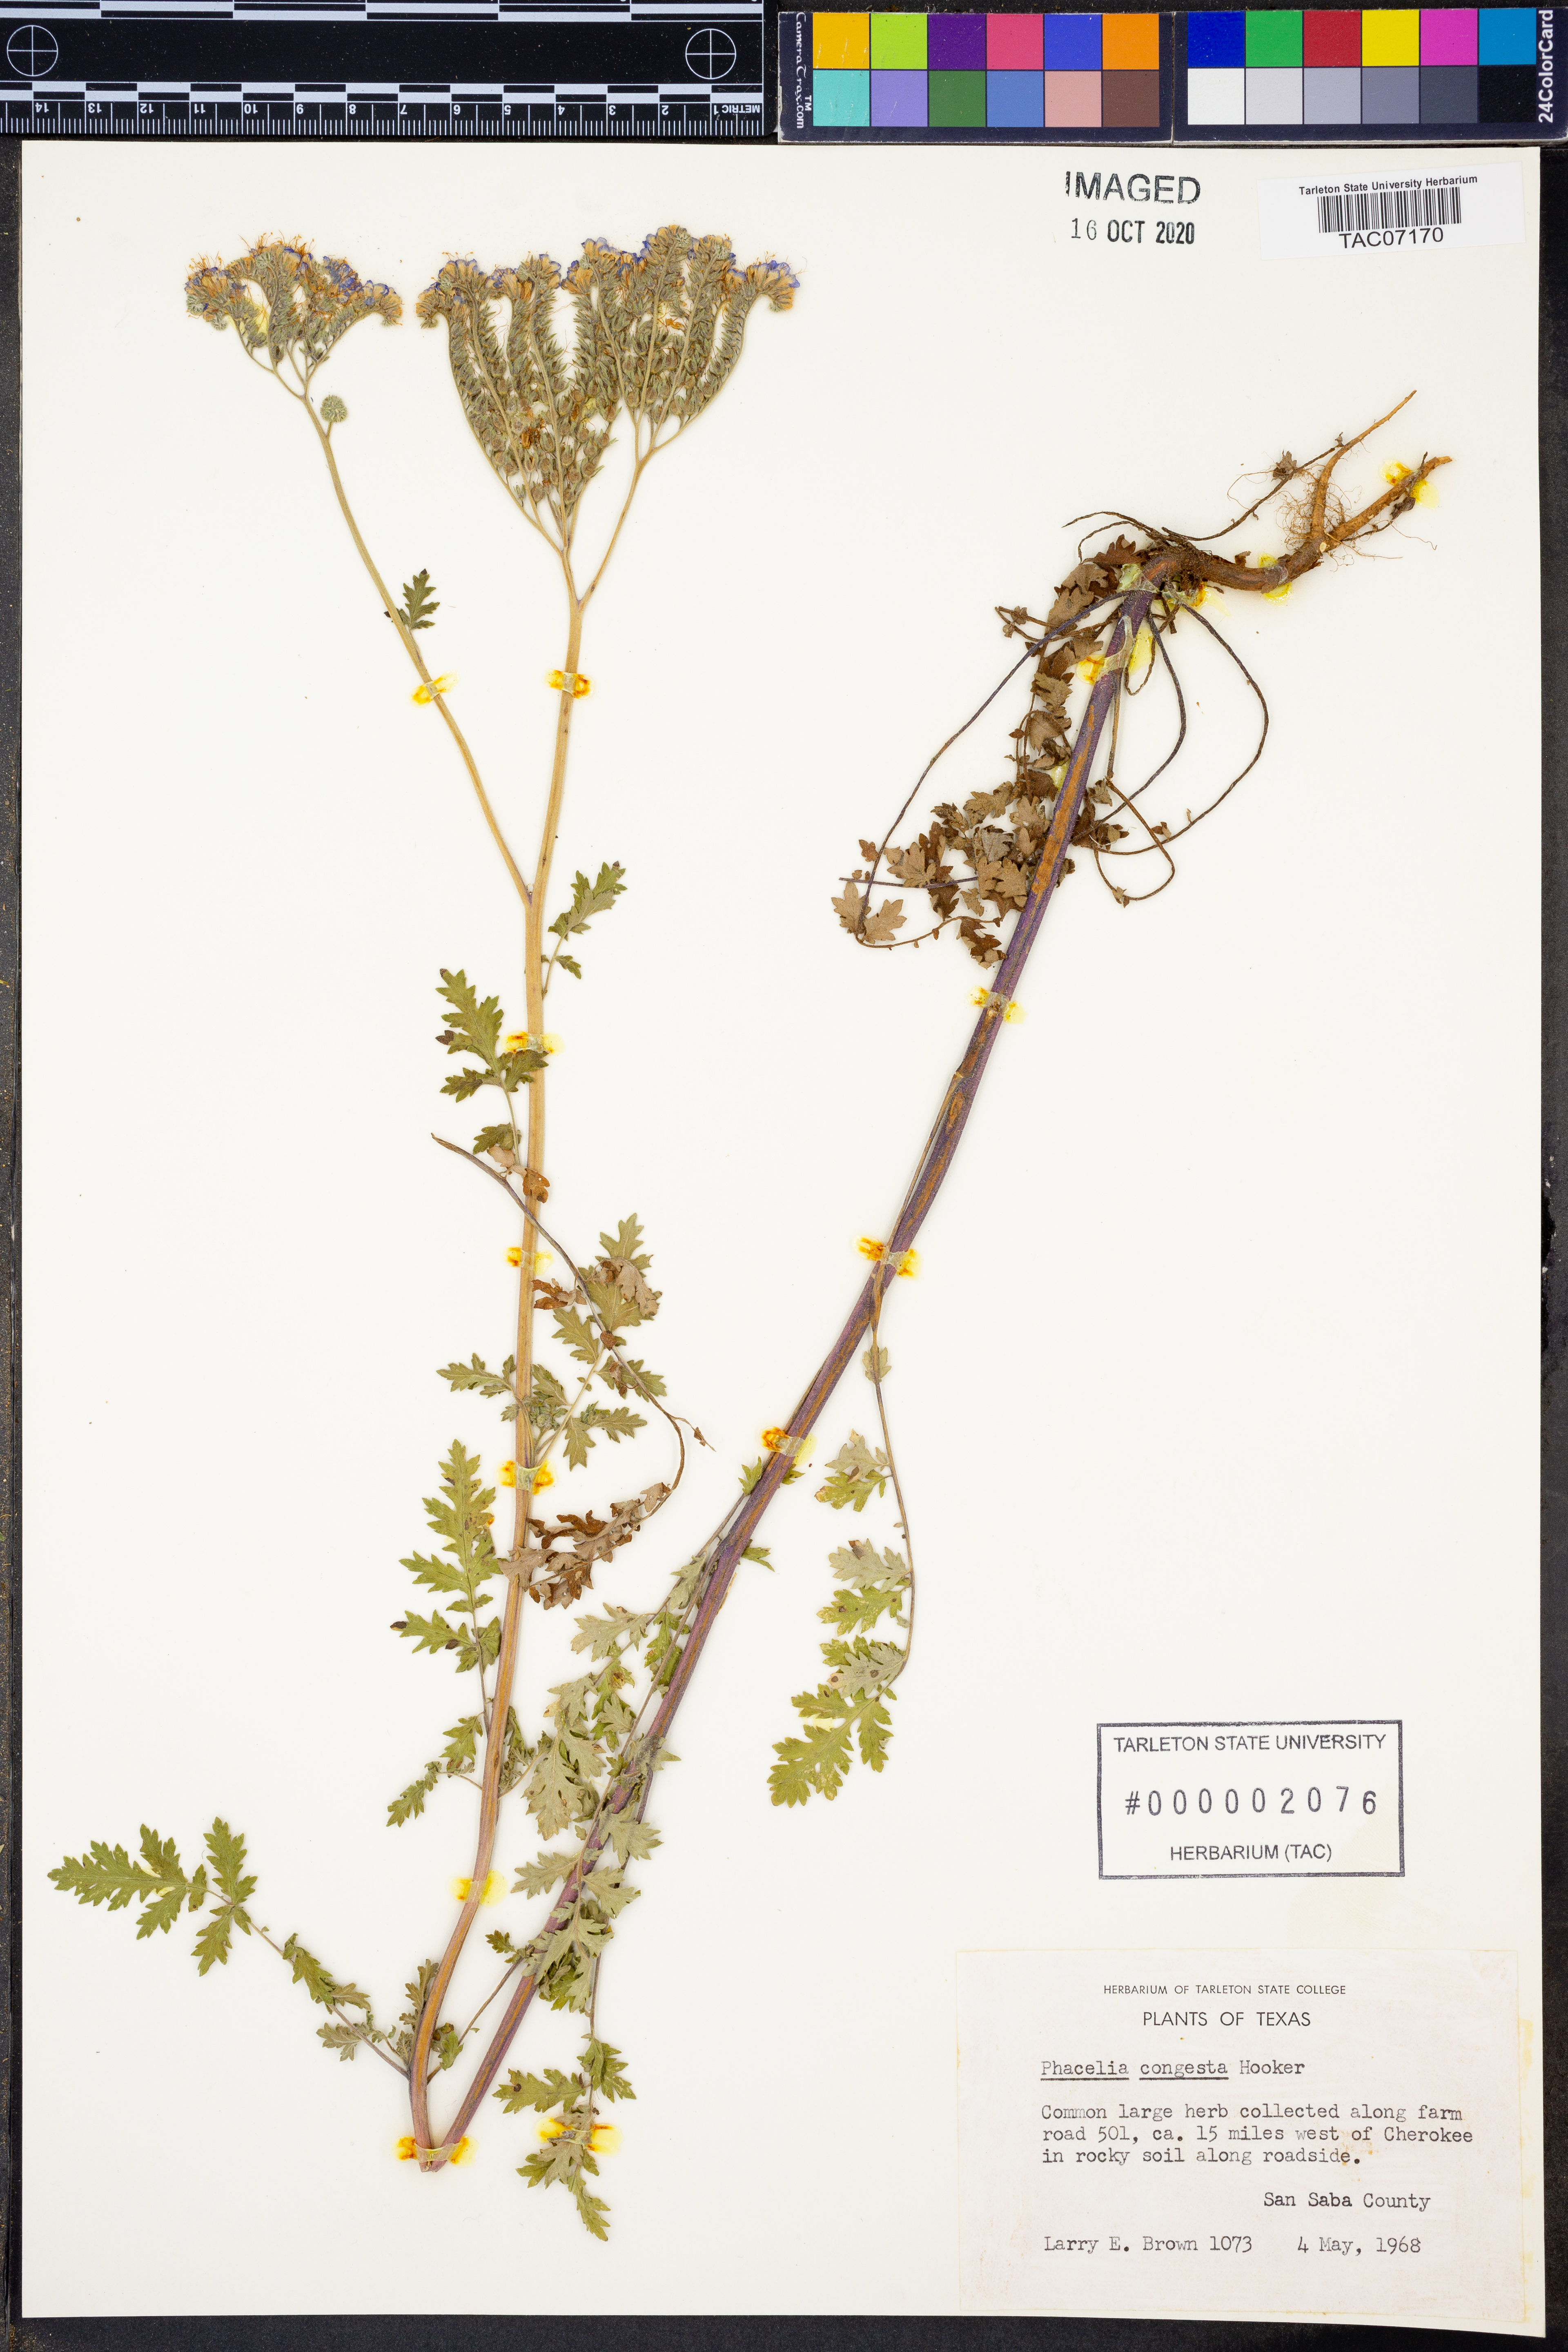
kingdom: Plantae
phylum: Tracheophyta
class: Magnoliopsida
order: Boraginales
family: Hydrophyllaceae
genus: Phacelia
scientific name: Phacelia congesta
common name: Blue curls
